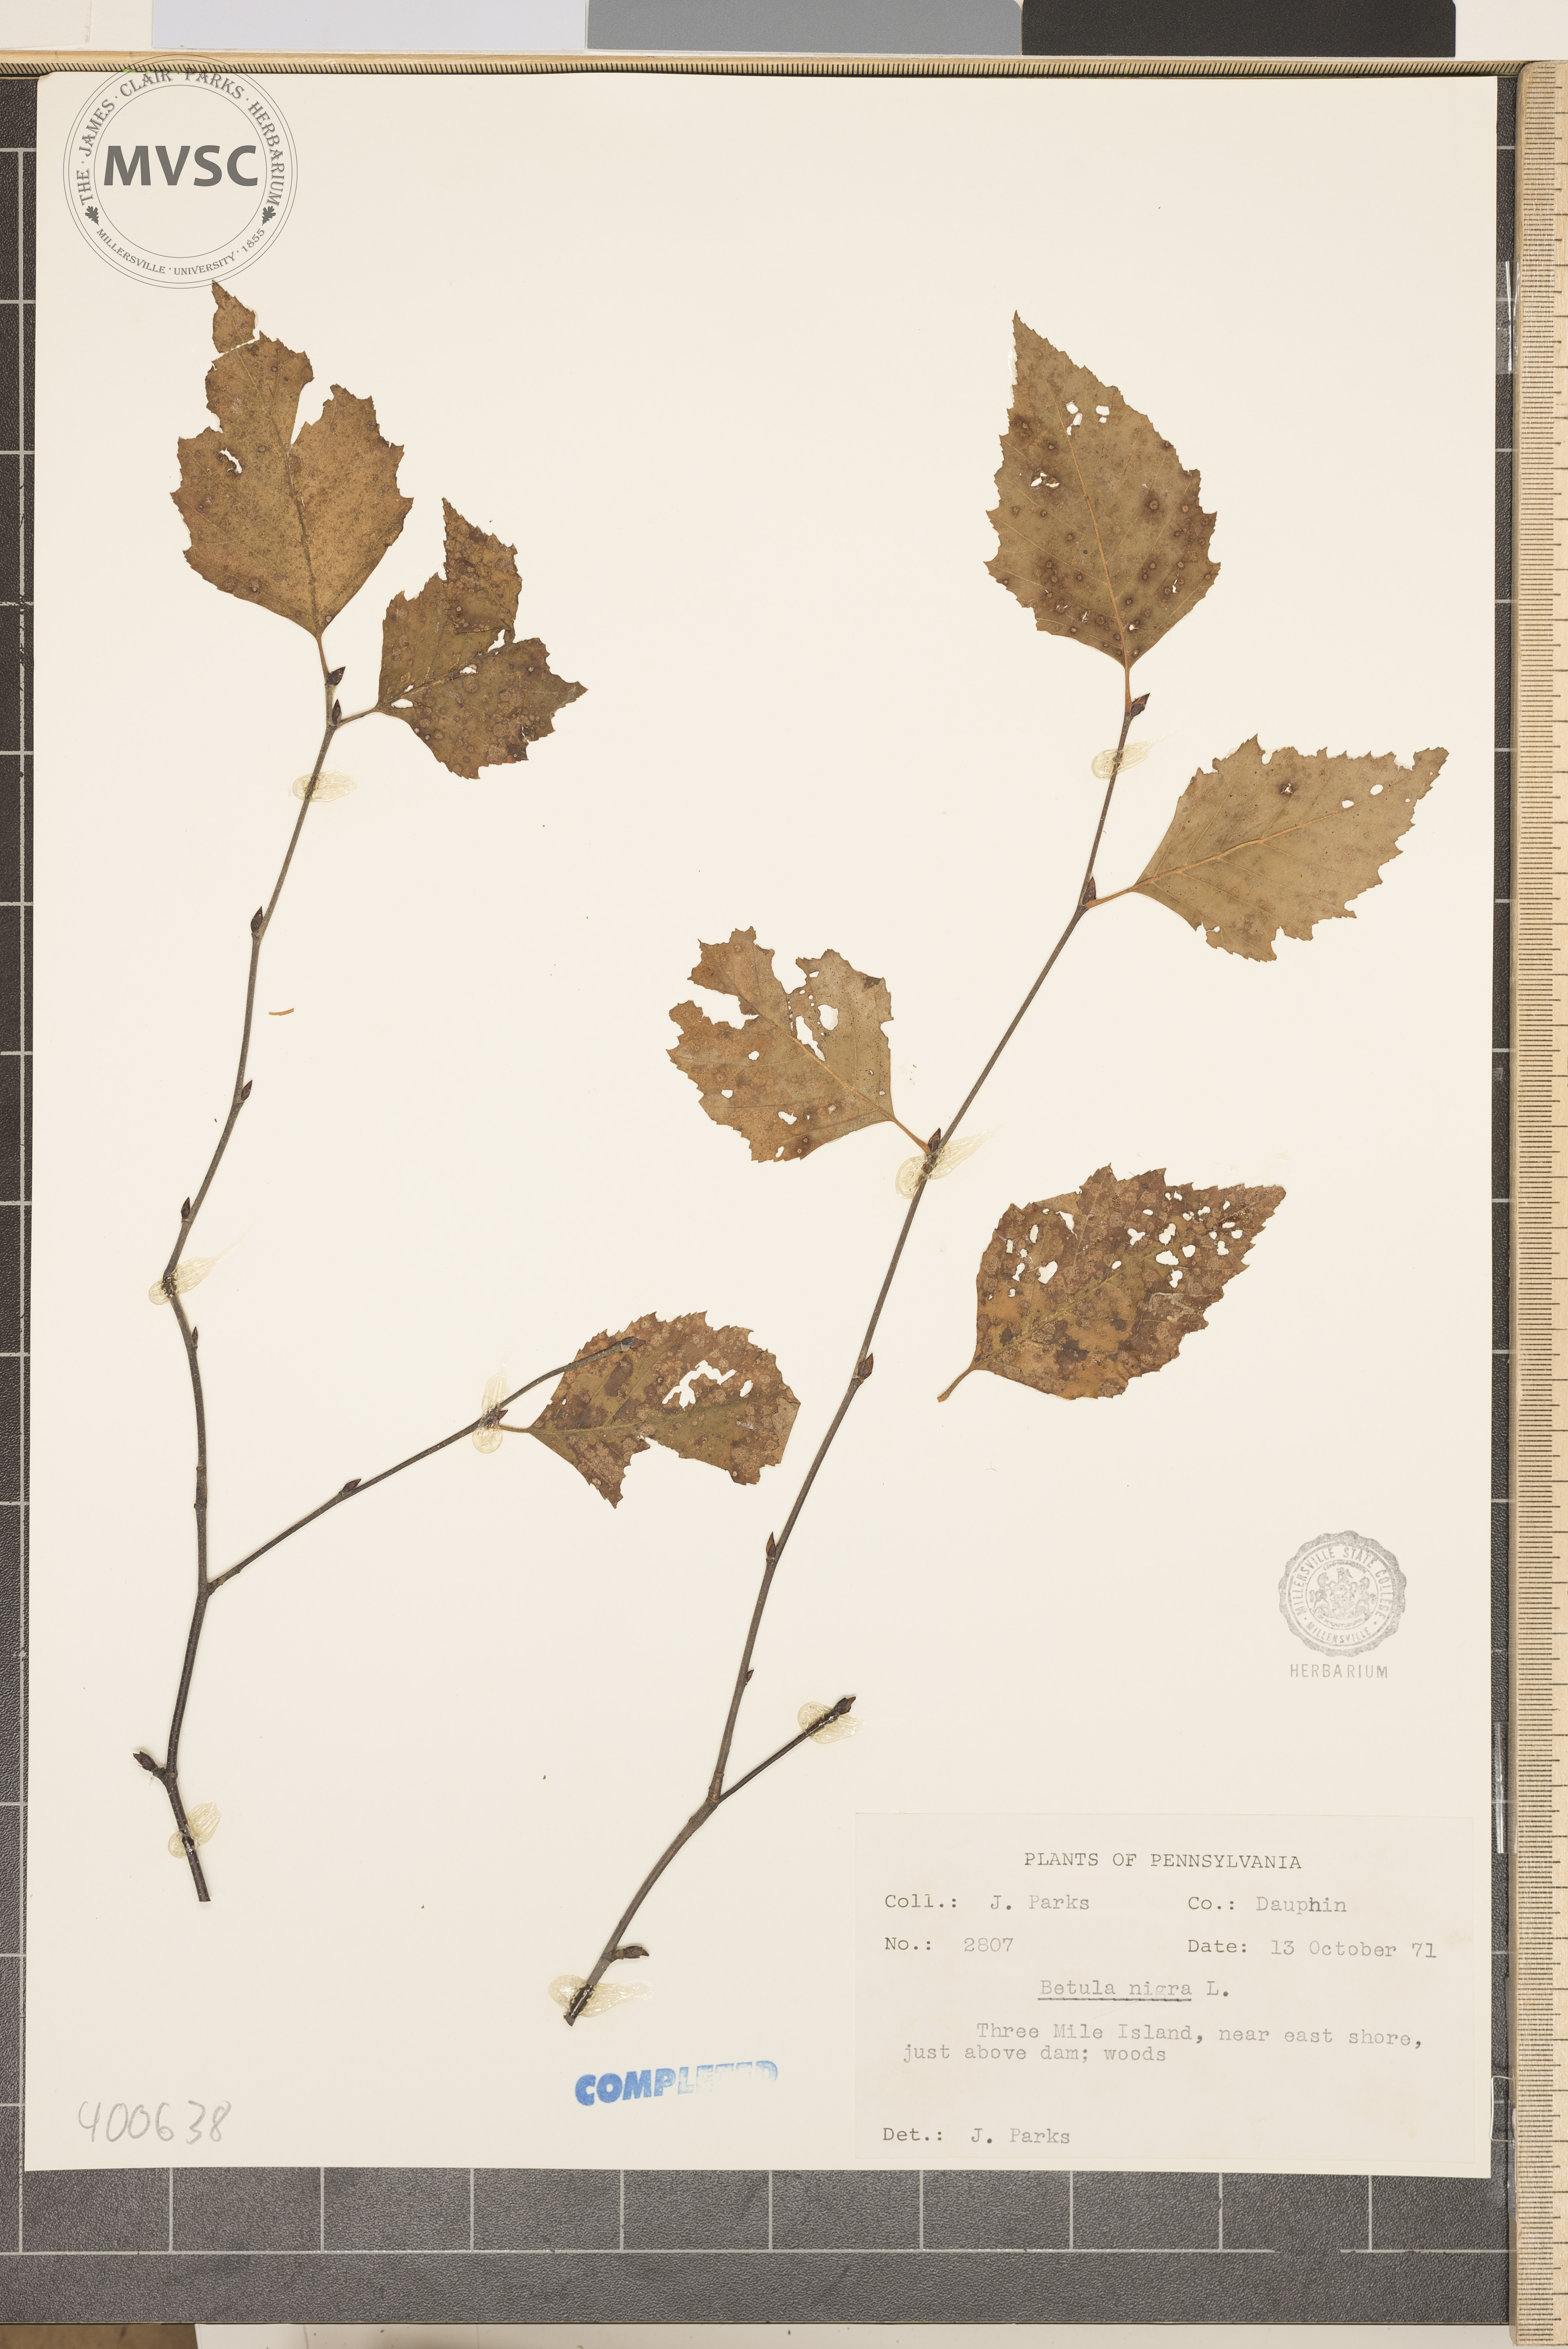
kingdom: Plantae
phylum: Tracheophyta
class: Magnoliopsida
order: Fagales
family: Betulaceae
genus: Betula
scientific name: Betula nigra
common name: river birch
